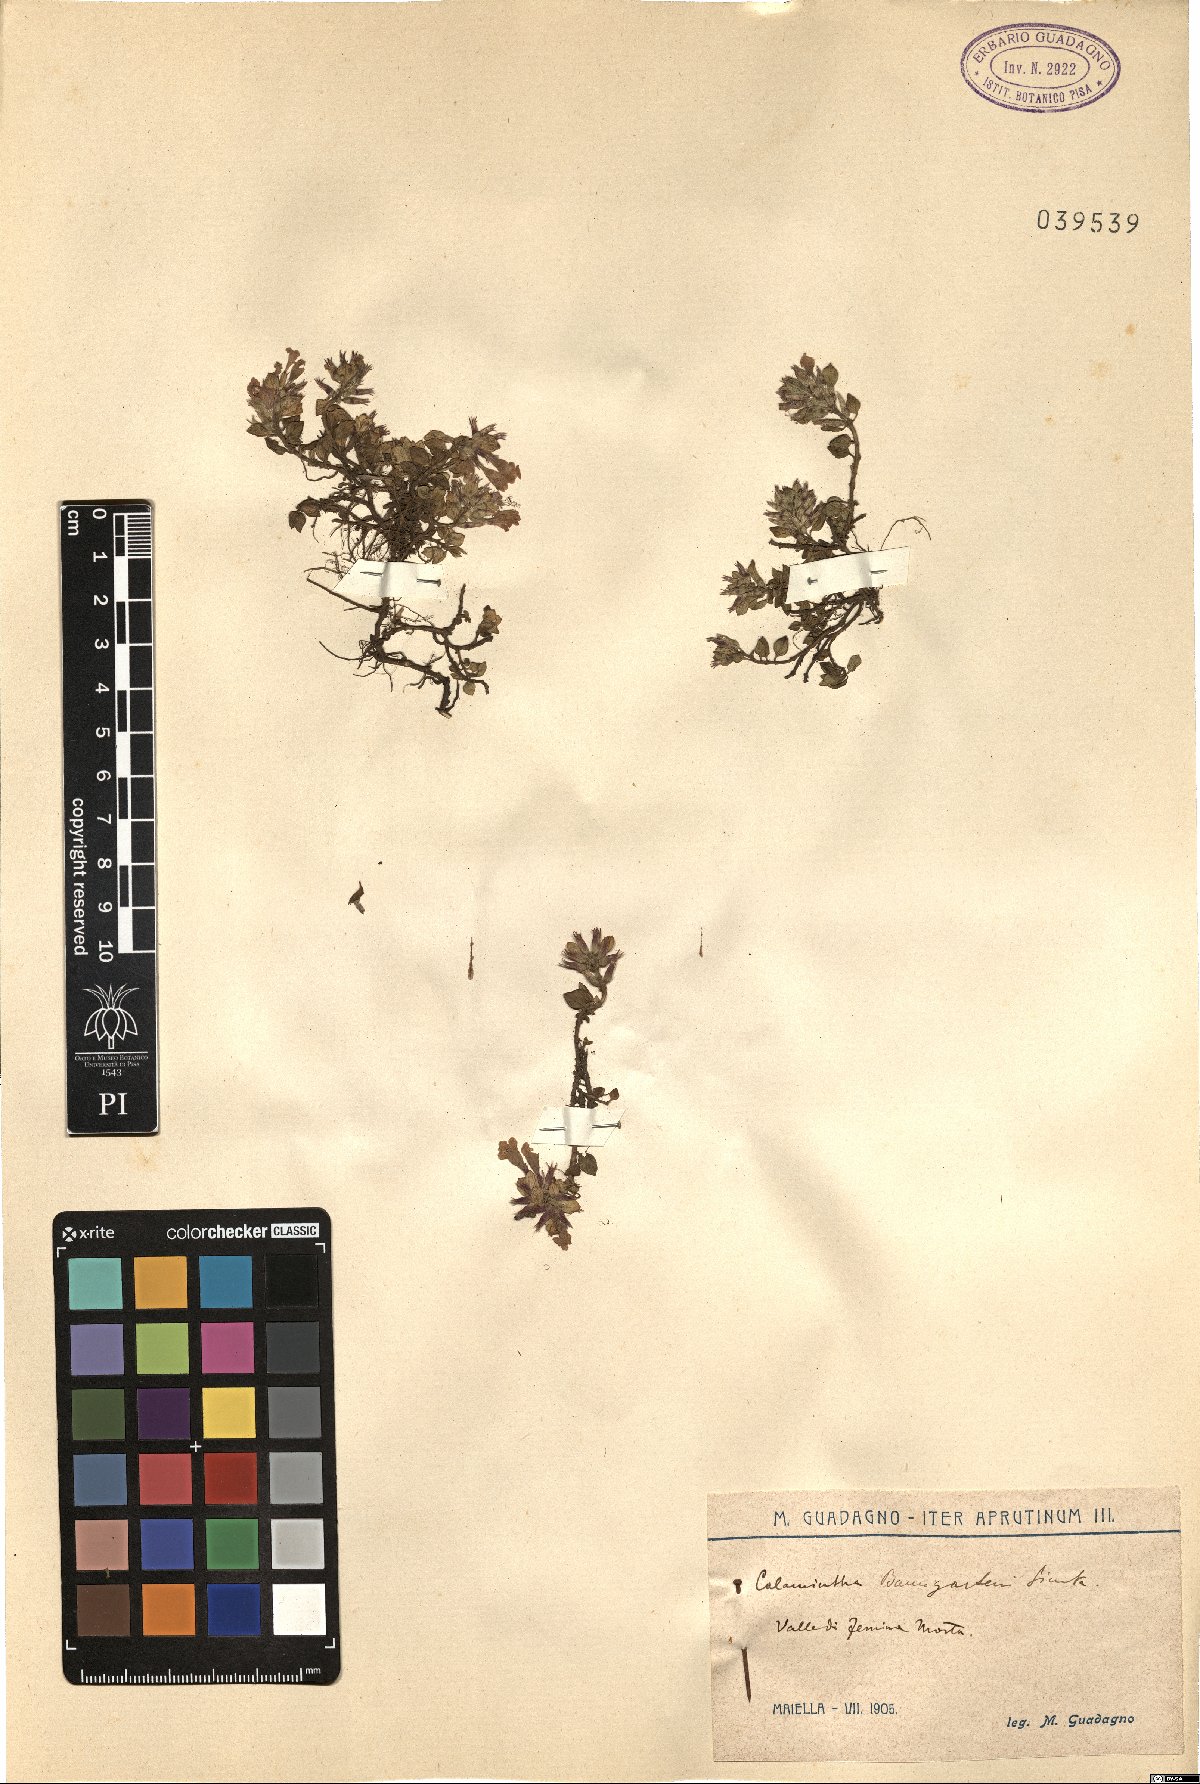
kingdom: Plantae
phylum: Tracheophyta
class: Magnoliopsida
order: Lamiales
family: Lamiaceae
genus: Clinopodium
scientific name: Clinopodium alpinum
